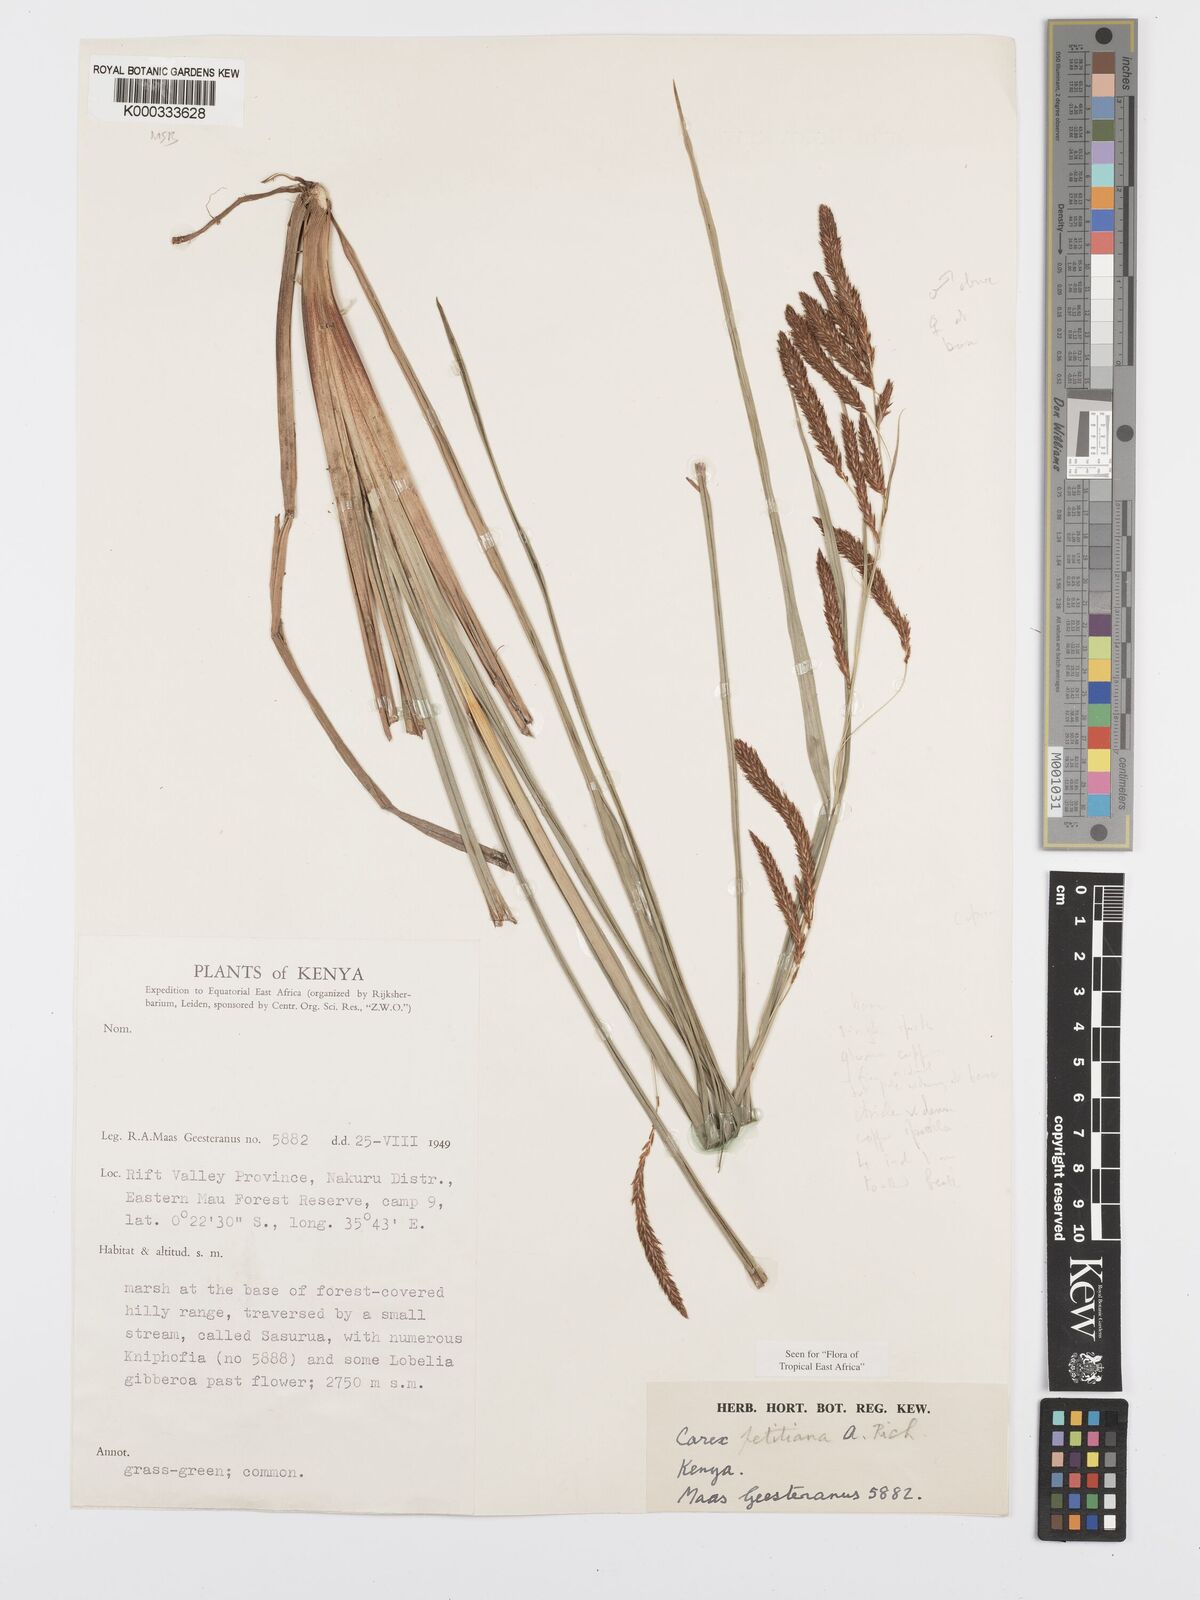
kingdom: Plantae
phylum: Tracheophyta
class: Liliopsida
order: Poales
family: Cyperaceae
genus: Carex
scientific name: Carex petitiana
